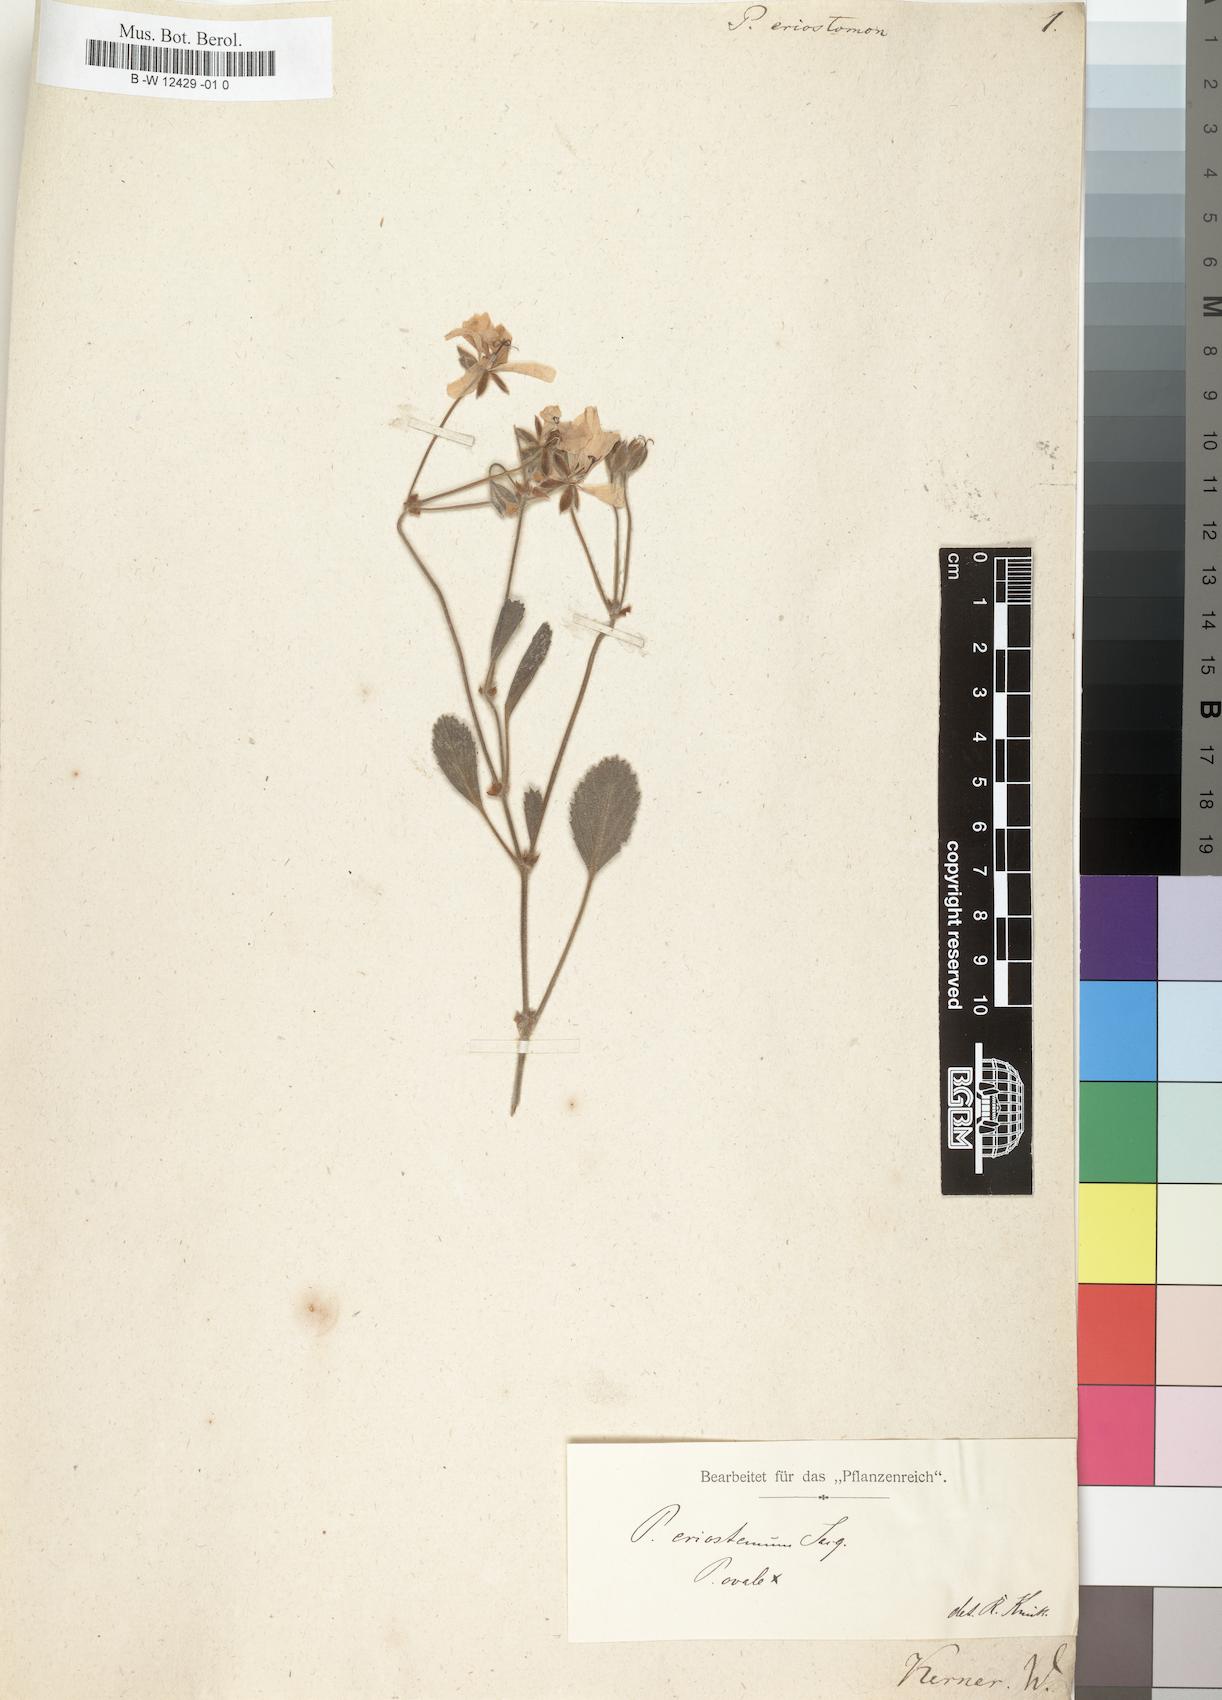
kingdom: Plantae
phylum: Tracheophyta
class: Magnoliopsida
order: Geraniales
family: Geraniaceae
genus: Pelargonium
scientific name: Pelargonium ovale
